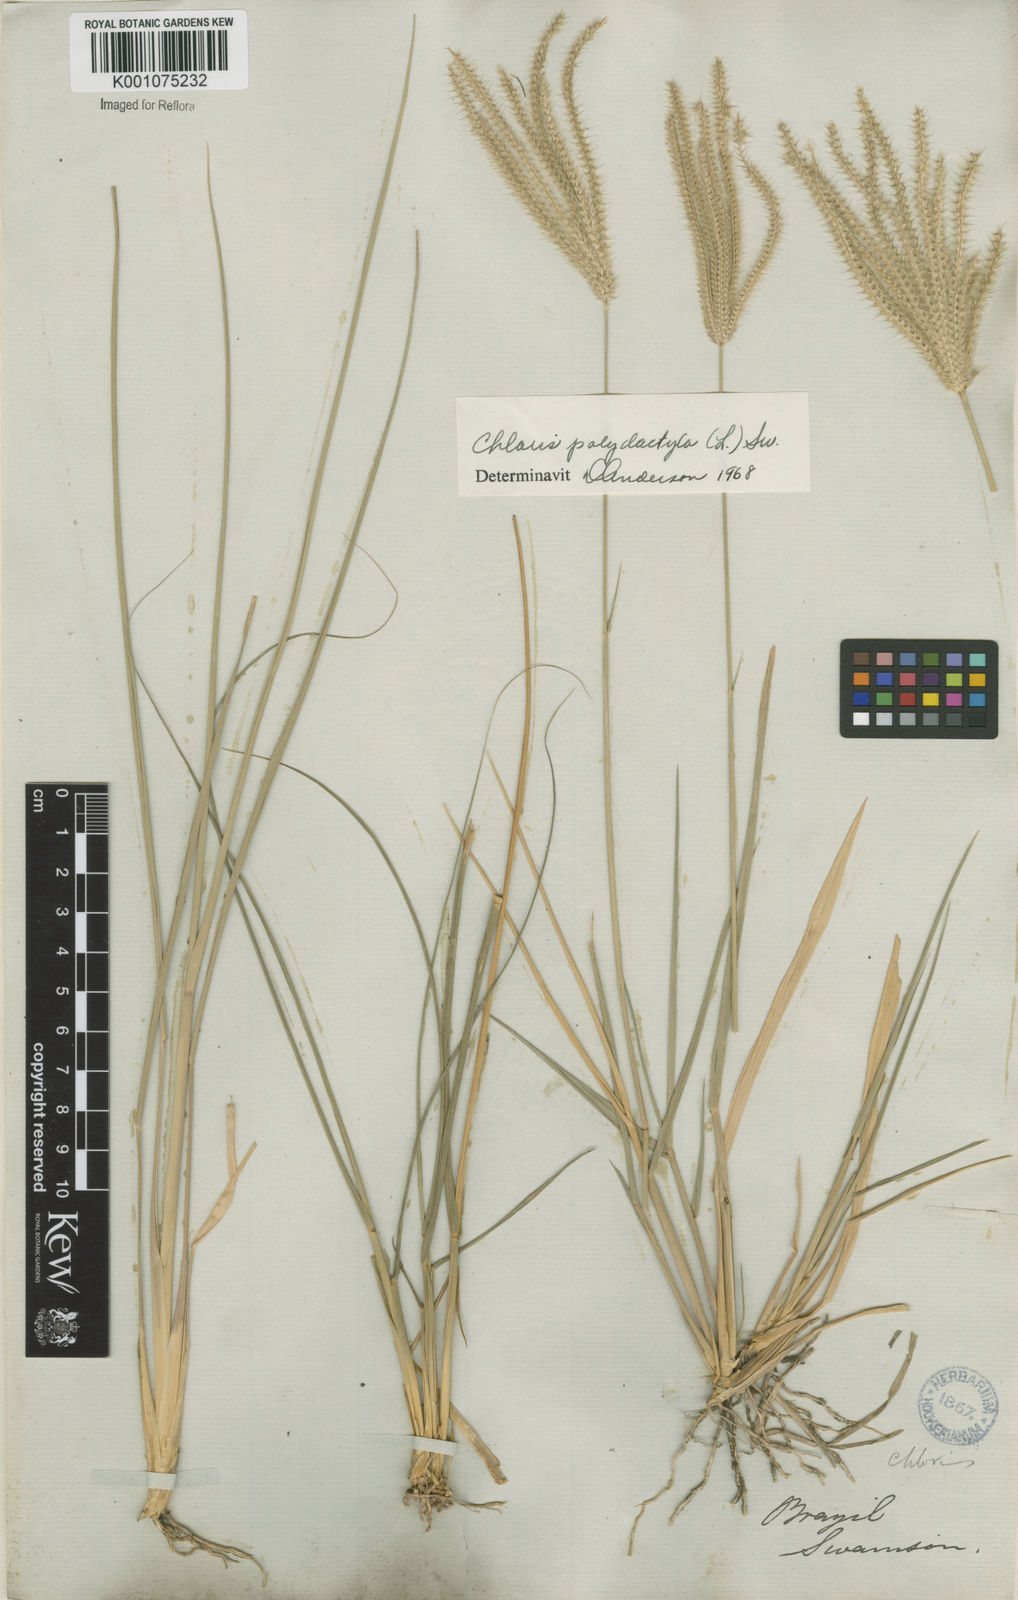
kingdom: Plantae
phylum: Tracheophyta
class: Liliopsida
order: Poales
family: Poaceae
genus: Stapfochloa
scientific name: Stapfochloa elata
